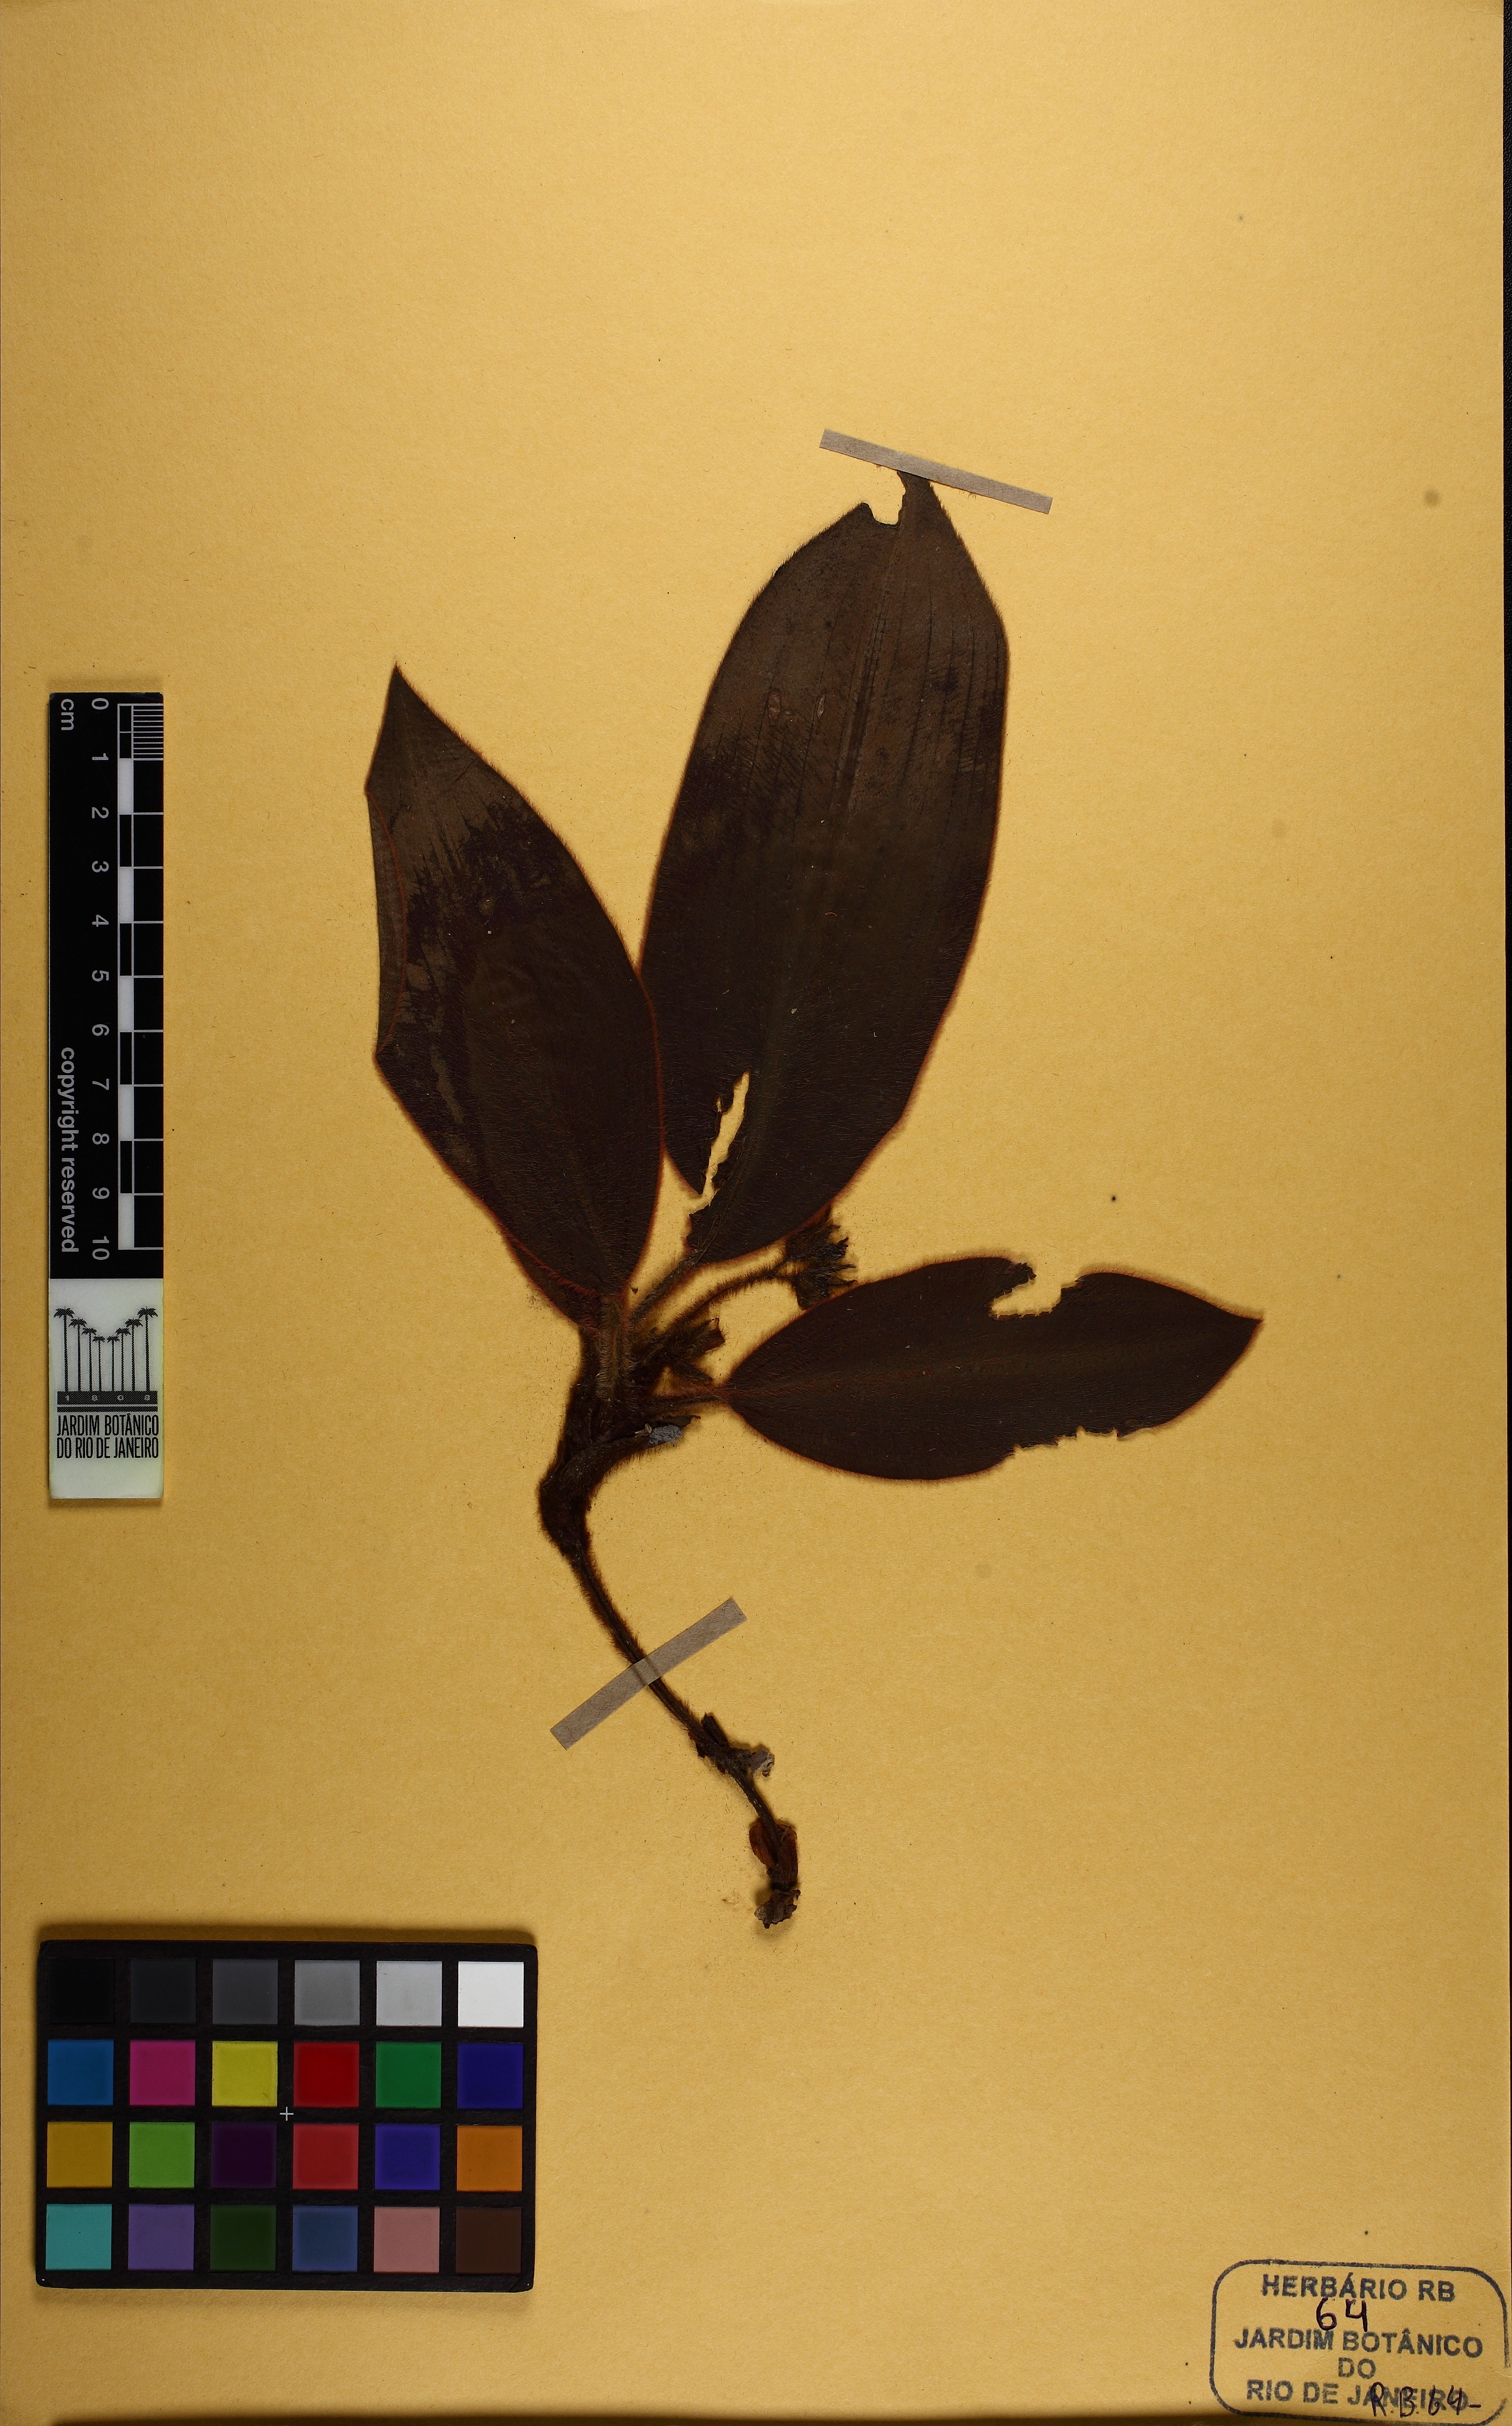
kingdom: Plantae
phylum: Tracheophyta
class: Liliopsida
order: Commelinales
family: Commelinaceae
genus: Siderasis
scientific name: Siderasis fuscata
